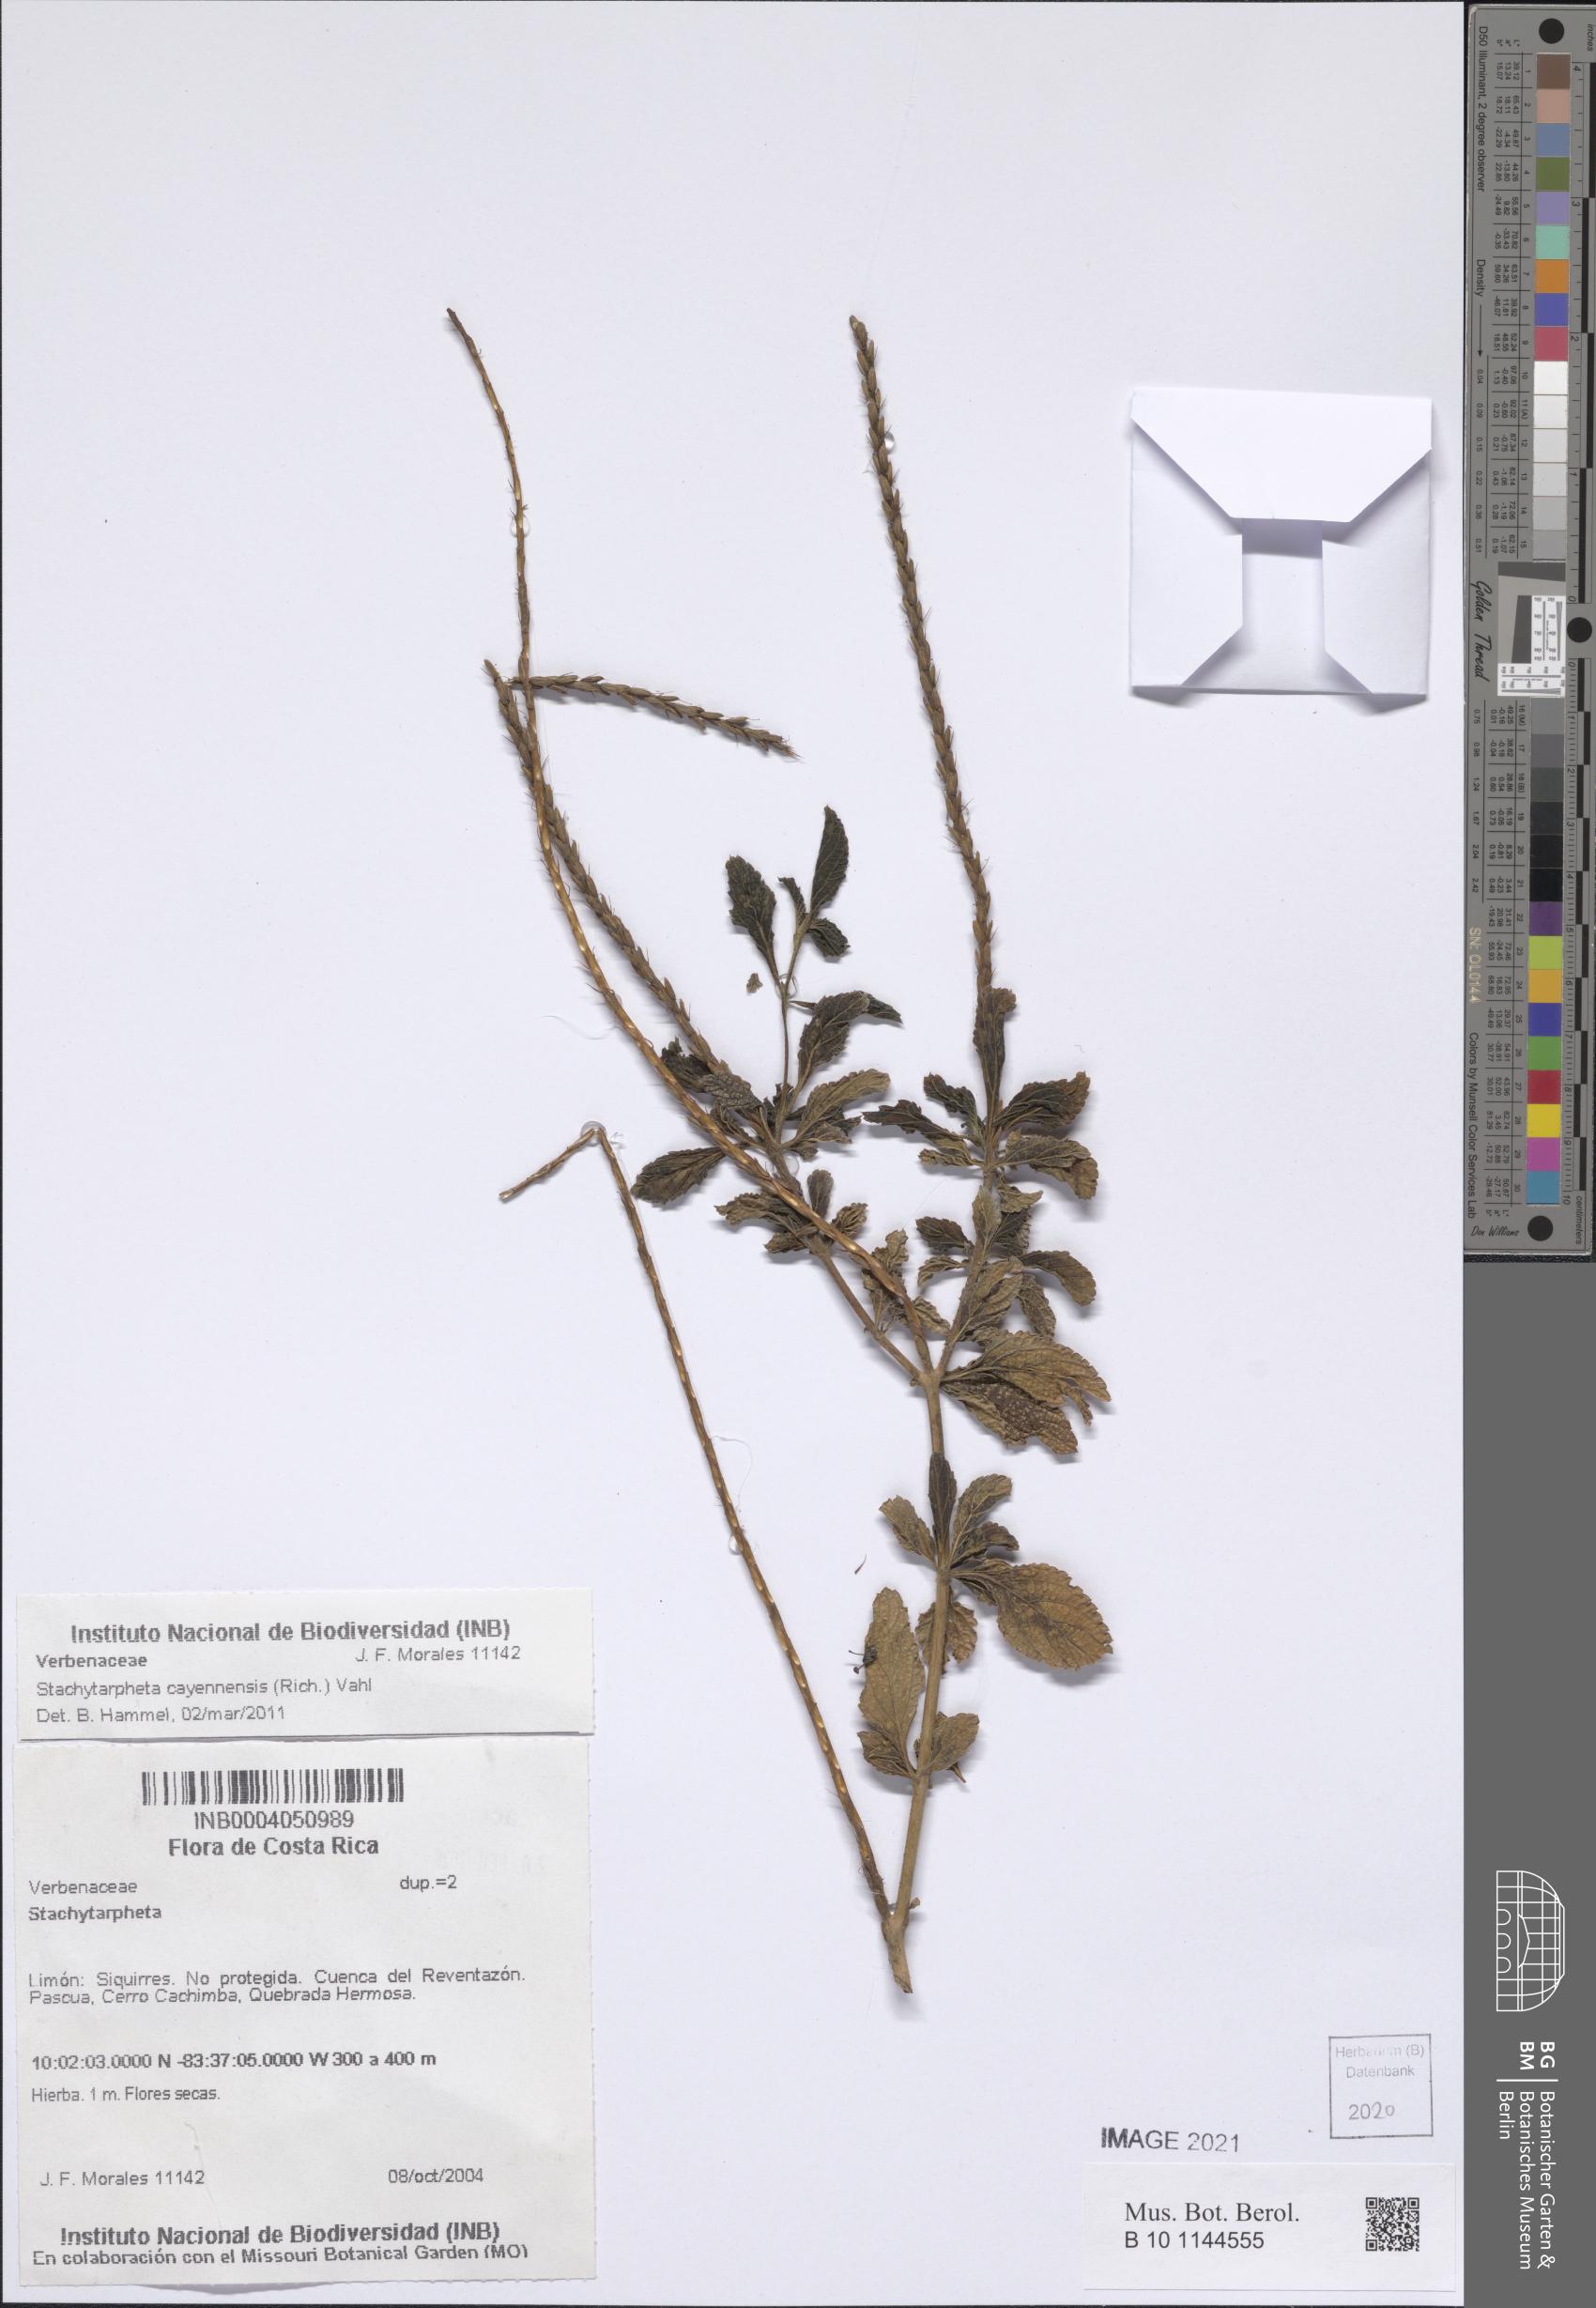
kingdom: Plantae
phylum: Tracheophyta
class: Magnoliopsida
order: Lamiales
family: Verbenaceae
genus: Stachytarpheta
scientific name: Stachytarpheta cayennensis
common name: Cayenne porterweed
